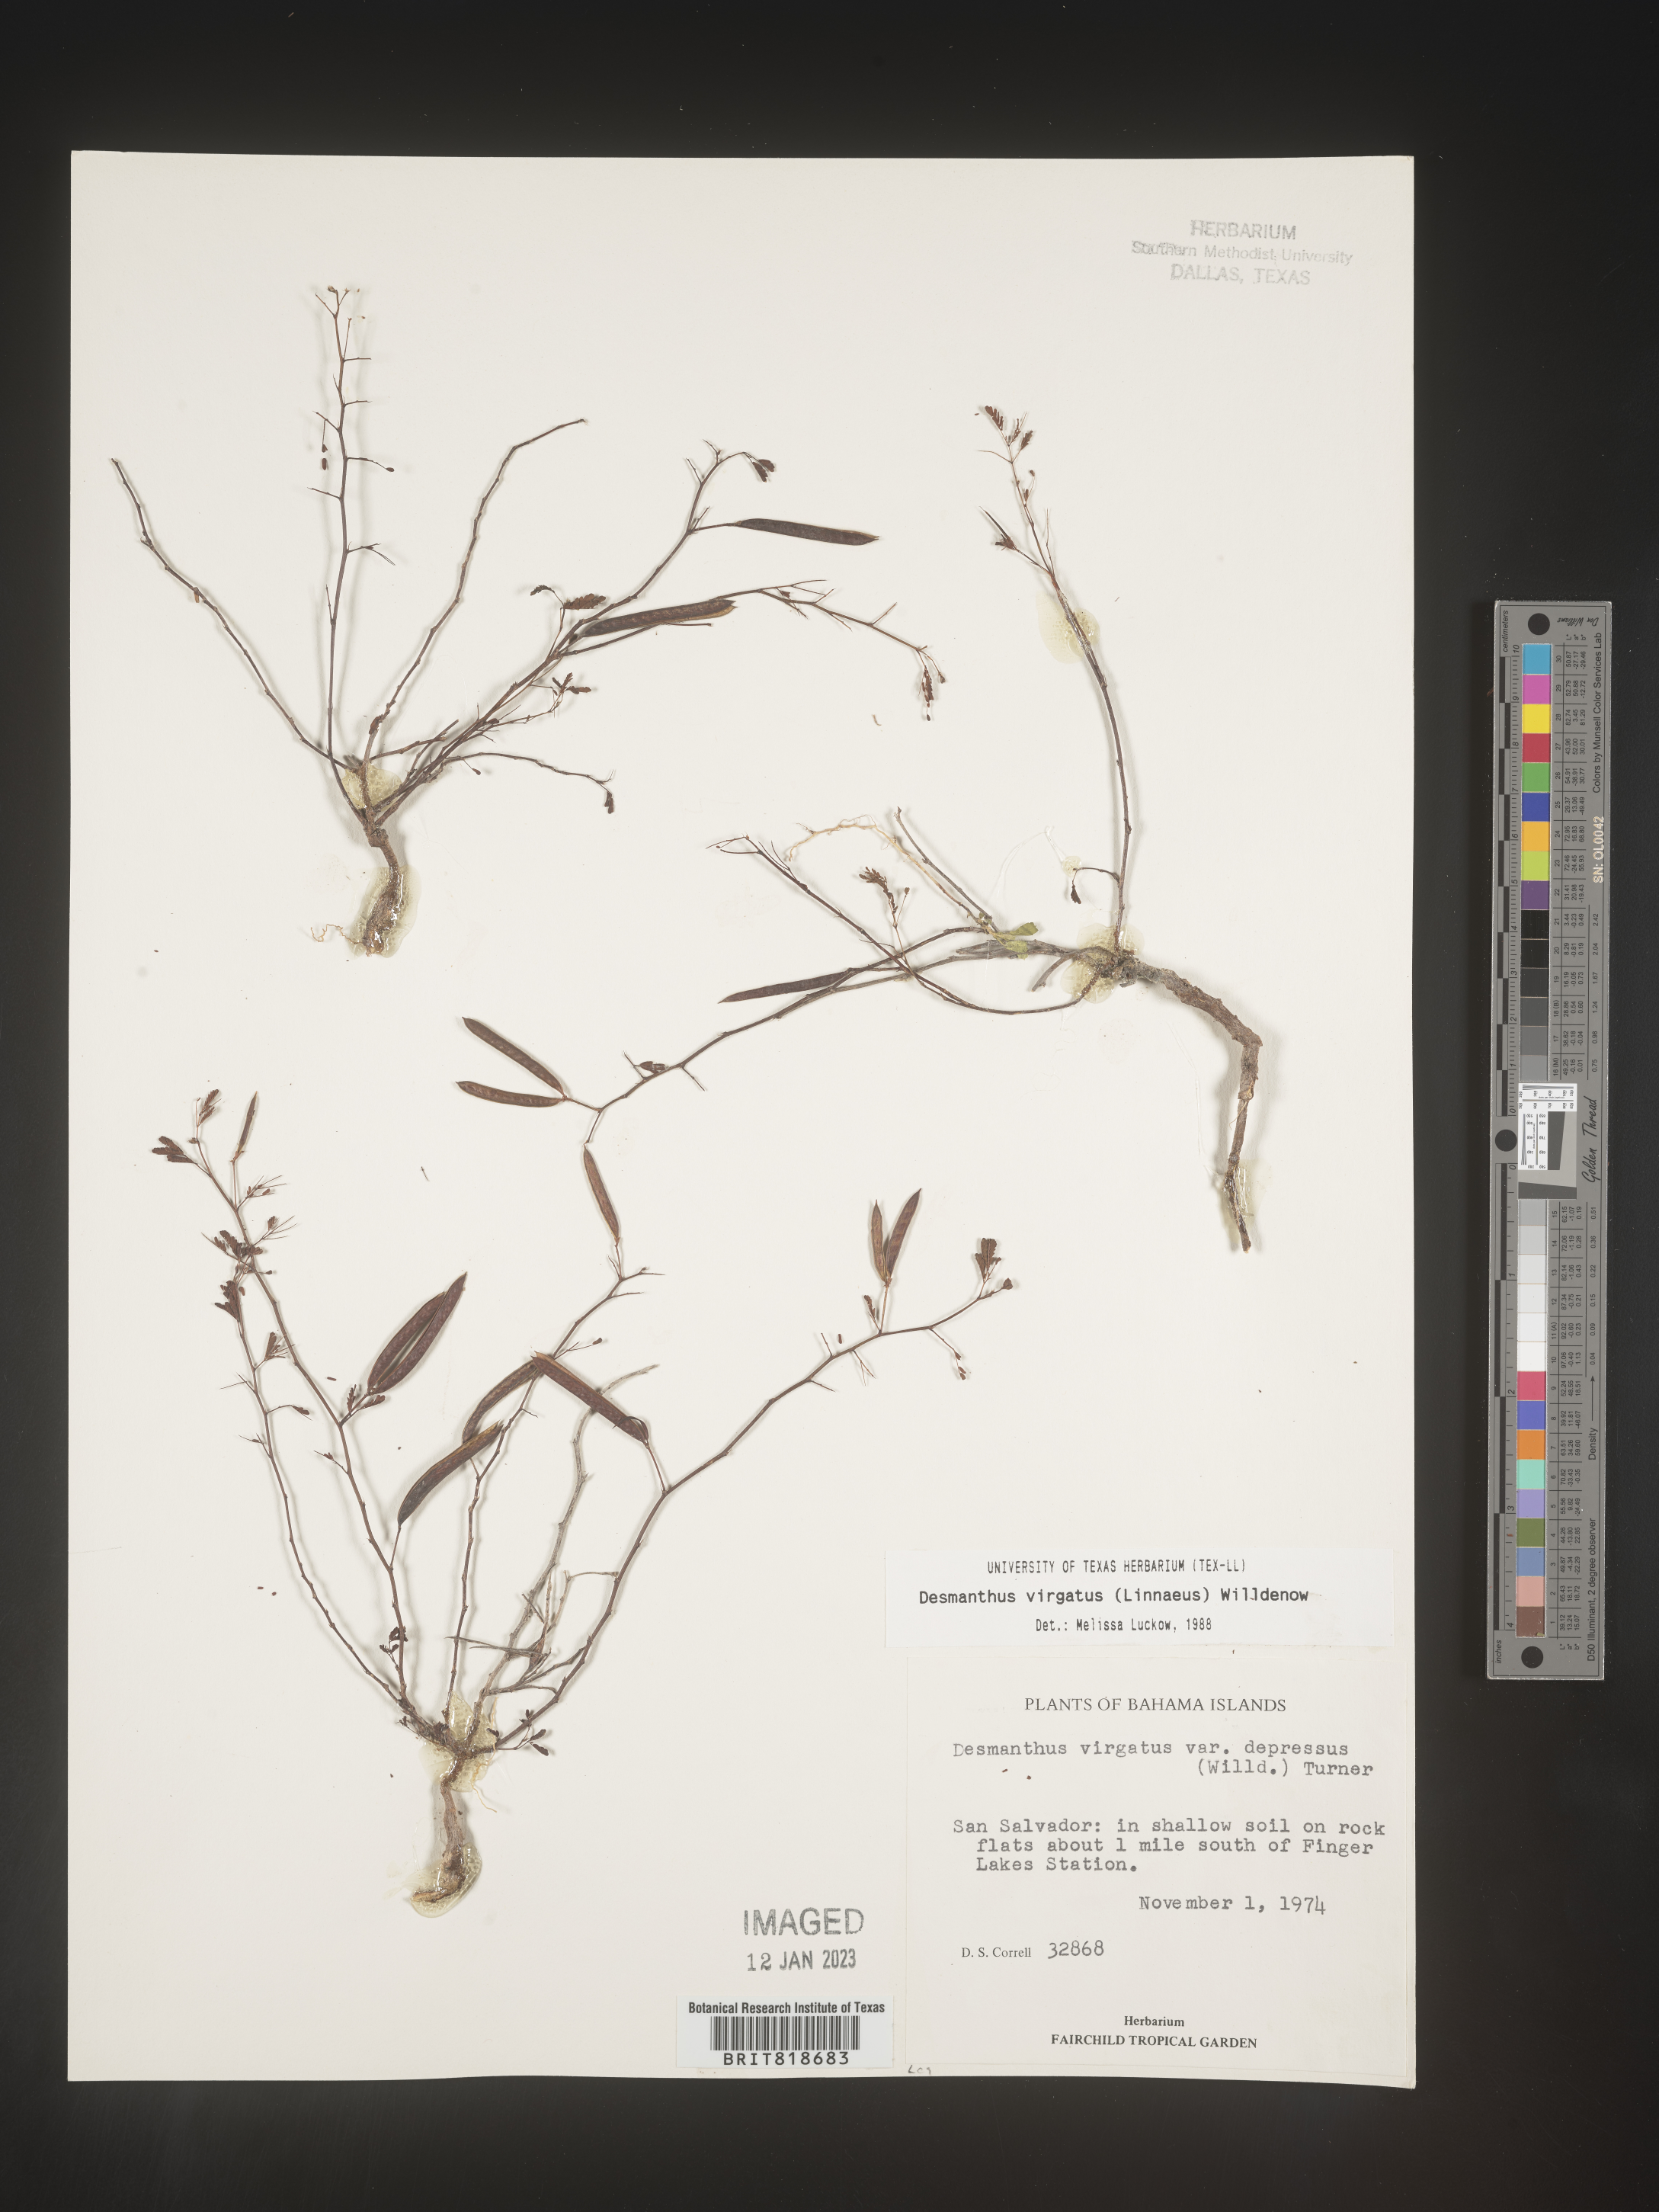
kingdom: Plantae
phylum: Tracheophyta
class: Magnoliopsida
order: Fabales
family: Fabaceae
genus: Desmanthus
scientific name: Desmanthus
